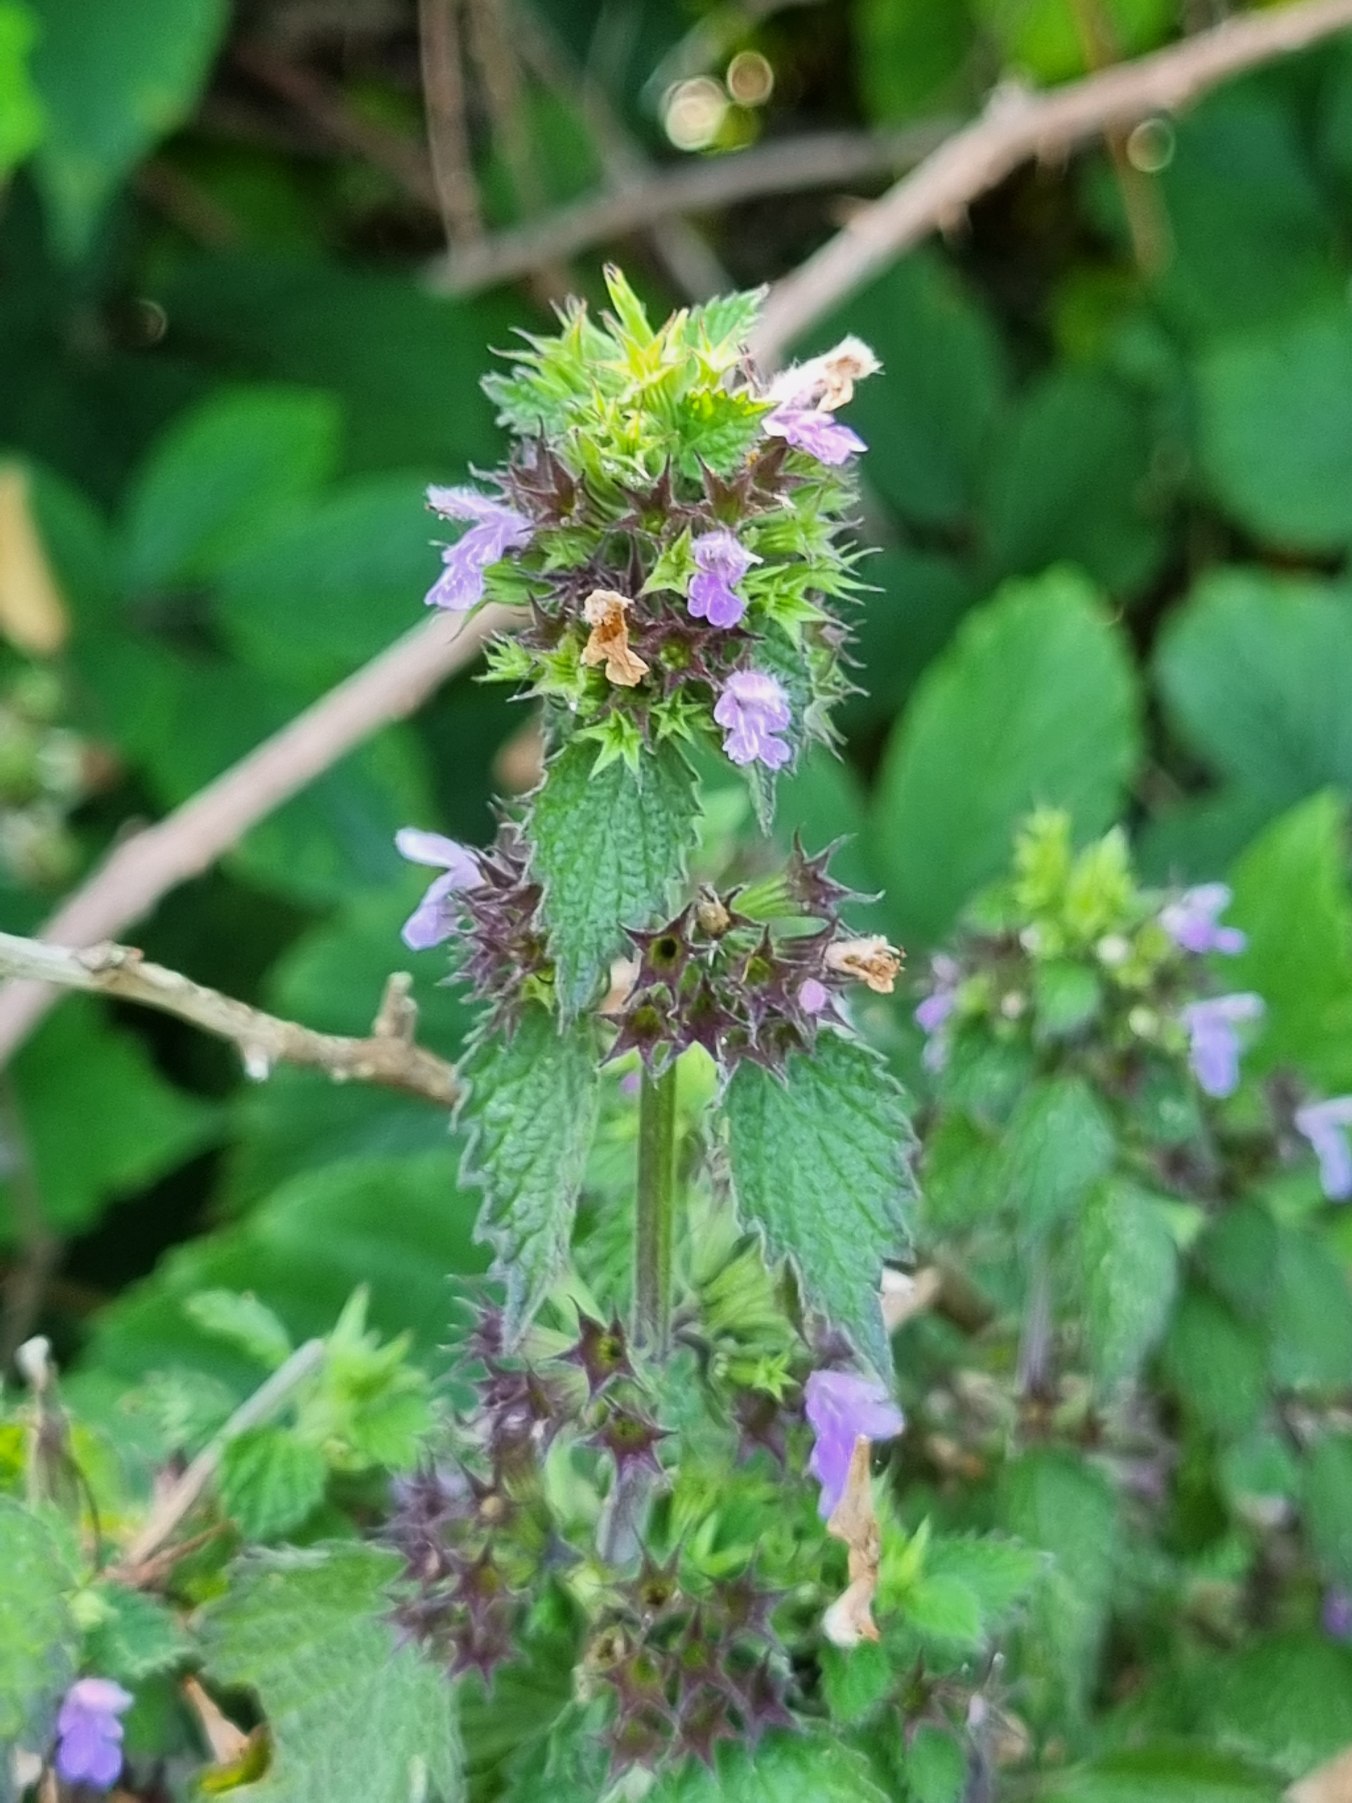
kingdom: Plantae
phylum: Tracheophyta
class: Magnoliopsida
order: Lamiales
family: Lamiaceae
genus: Ballota
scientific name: Ballota nigra
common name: Tandbæger
